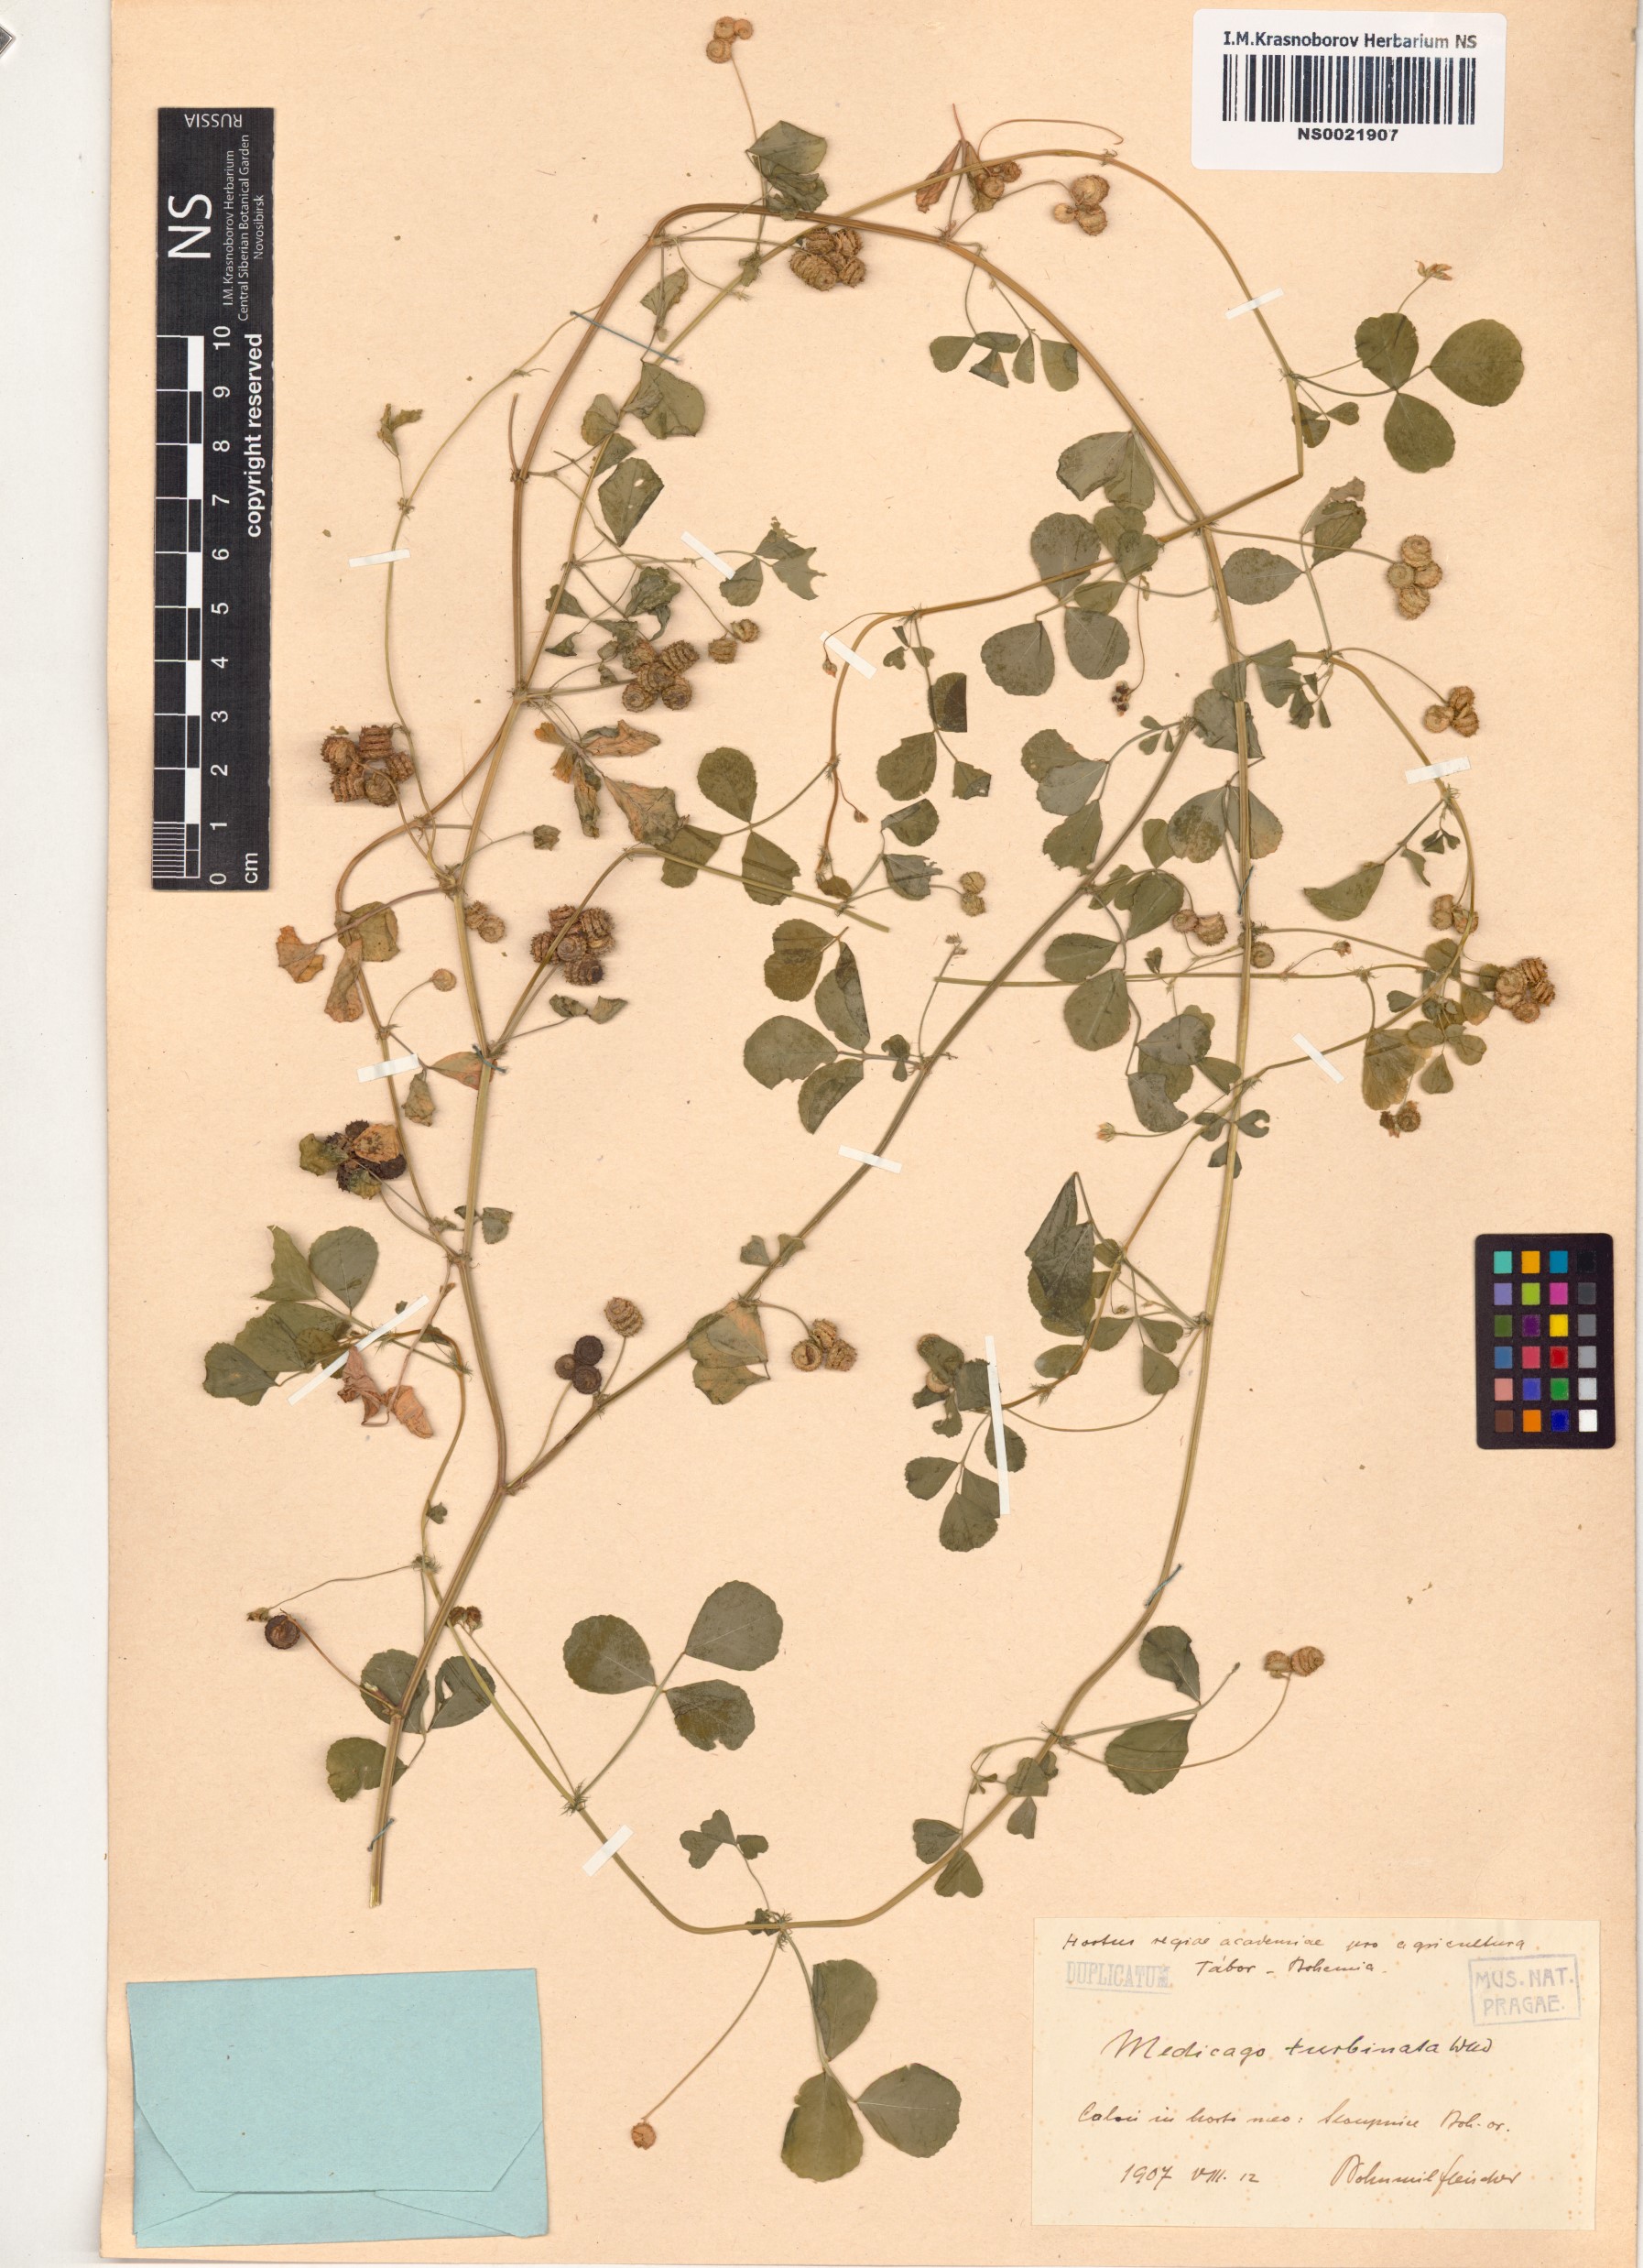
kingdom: Plantae
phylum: Tracheophyta
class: Magnoliopsida
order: Fabales
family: Fabaceae
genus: Medicago
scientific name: Medicago turbinata
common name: Southern medick
